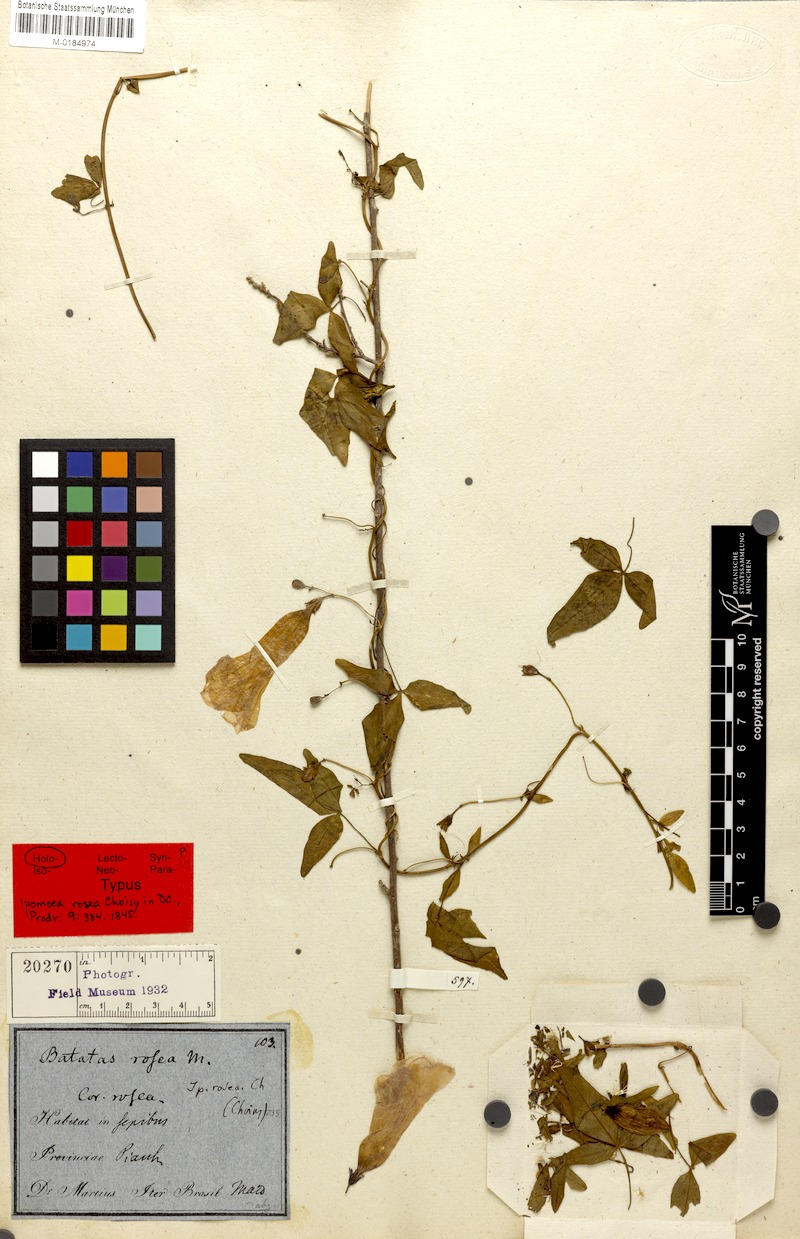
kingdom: Plantae
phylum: Tracheophyta
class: Magnoliopsida
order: Solanales
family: Convolvulaceae
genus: Ipomoea
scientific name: Ipomoea rosea
